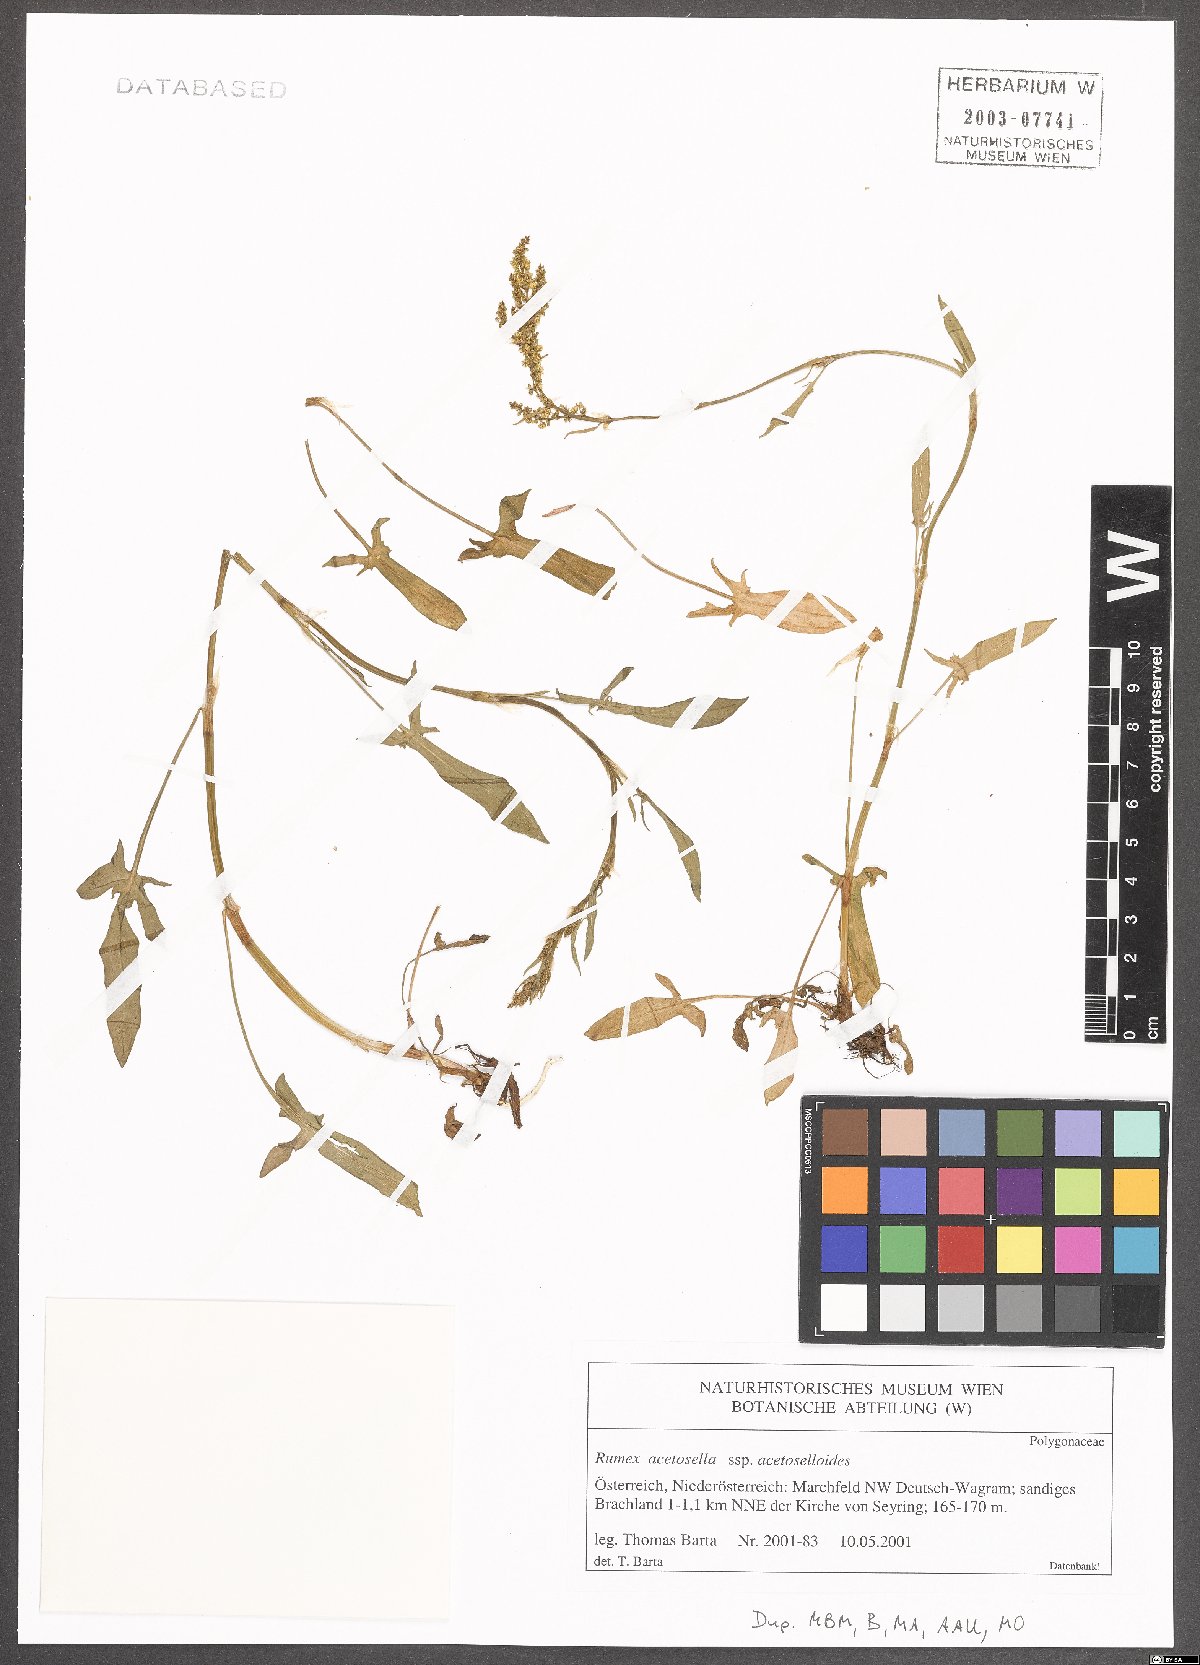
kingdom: Plantae
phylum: Tracheophyta
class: Magnoliopsida
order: Caryophyllales
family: Polygonaceae
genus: Rumex
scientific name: Rumex acetosella
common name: Common sheep sorrel
